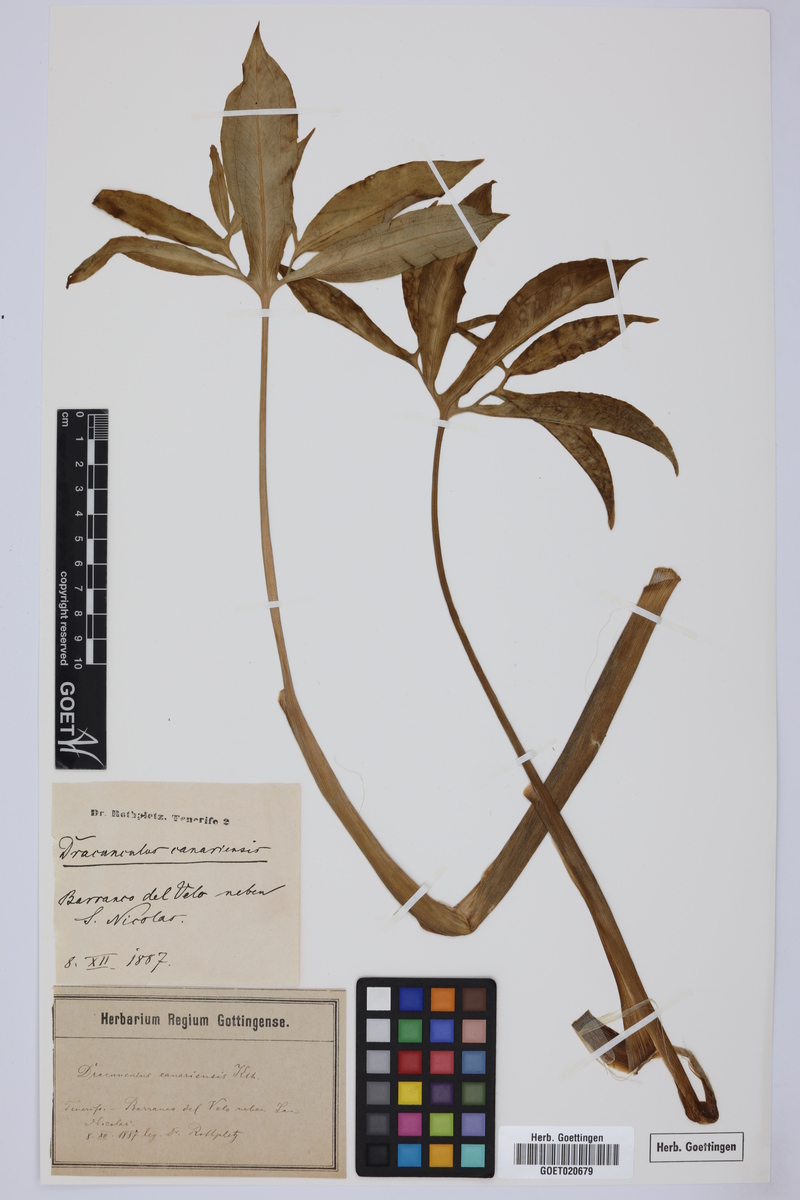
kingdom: Plantae
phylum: Tracheophyta
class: Liliopsida
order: Alismatales
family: Araceae
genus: Dracunculus
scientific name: Dracunculus canariensis
